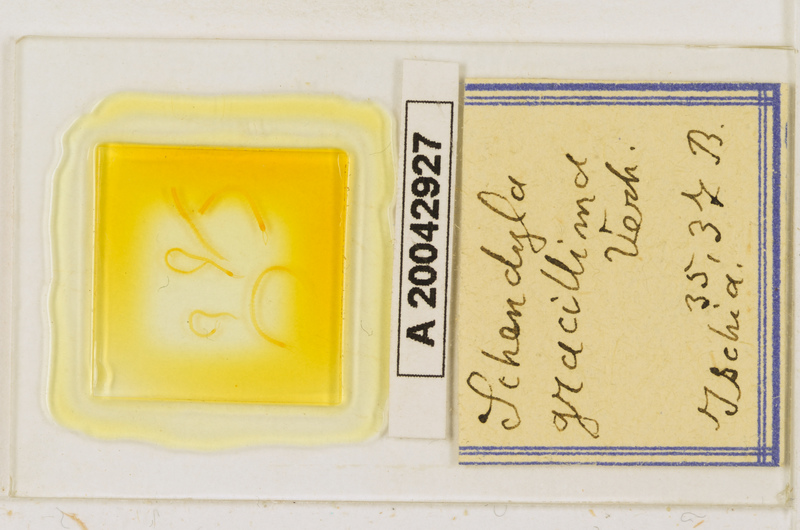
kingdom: Animalia
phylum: Arthropoda
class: Chilopoda
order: Geophilomorpha
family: Schendylidae
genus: Schendyla
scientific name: Schendyla gracillima
